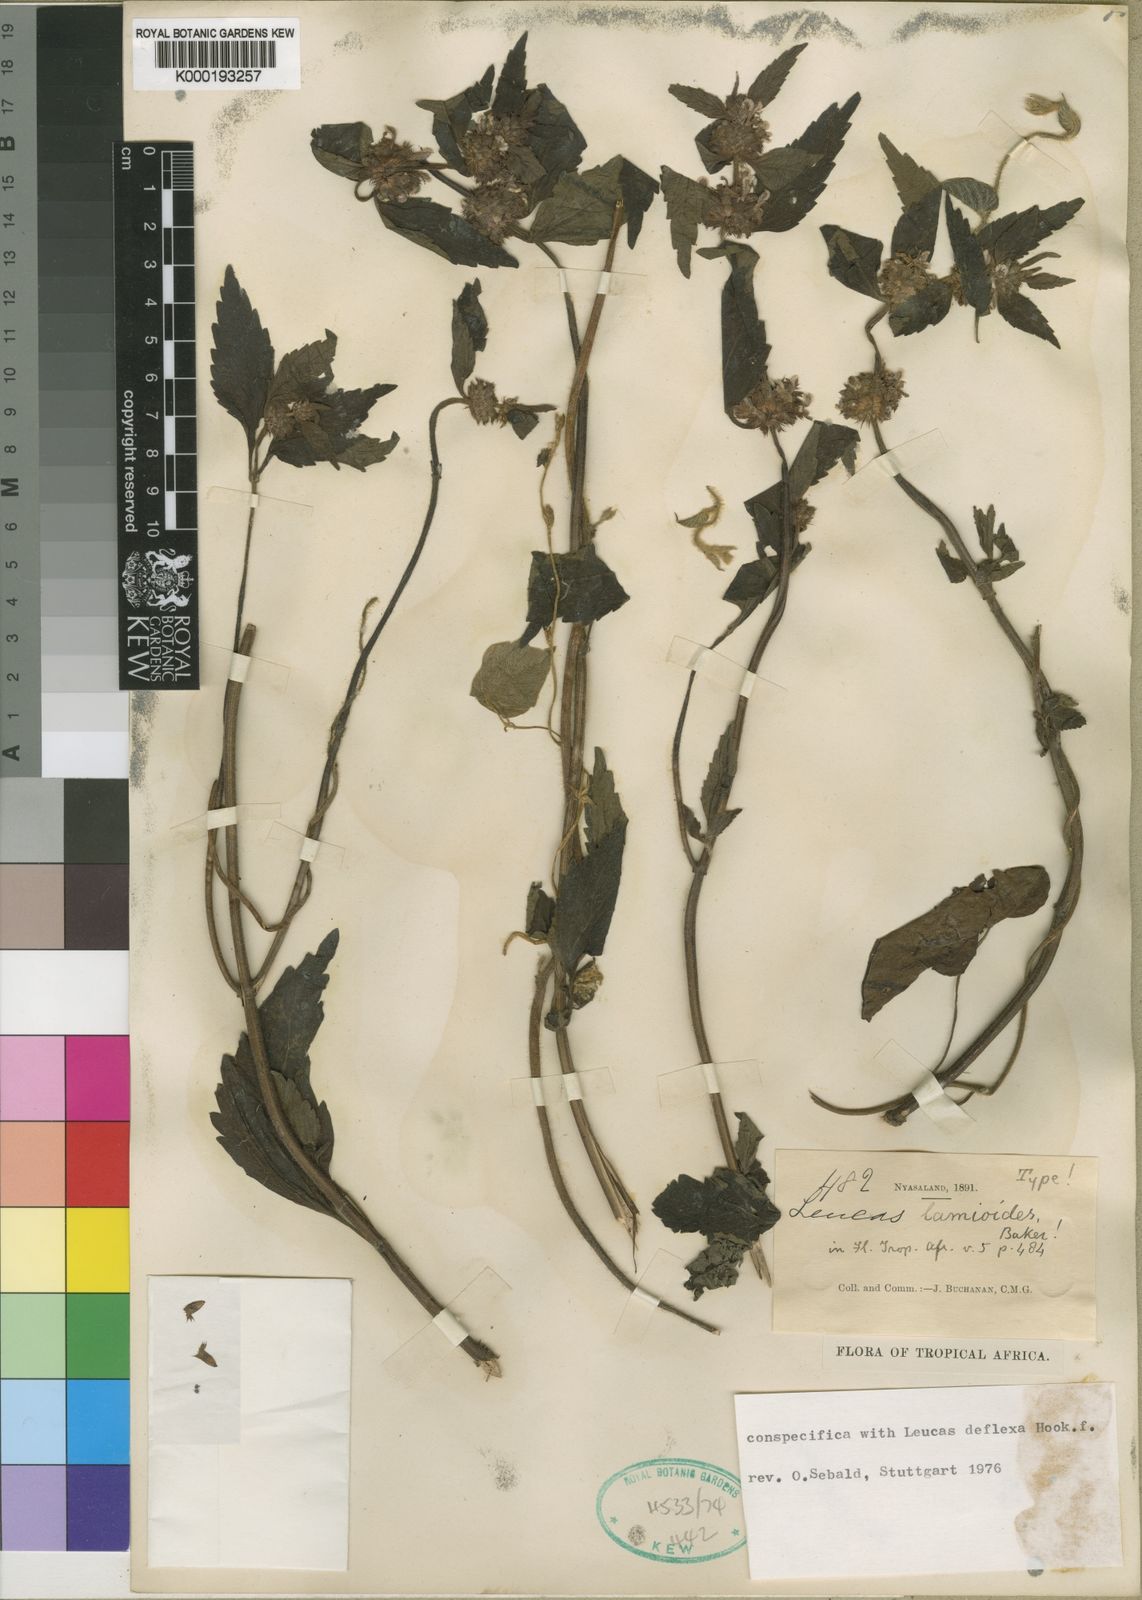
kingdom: Plantae
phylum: Tracheophyta
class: Magnoliopsida
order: Lamiales
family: Lamiaceae
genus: Leucas
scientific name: Leucas deflexa
